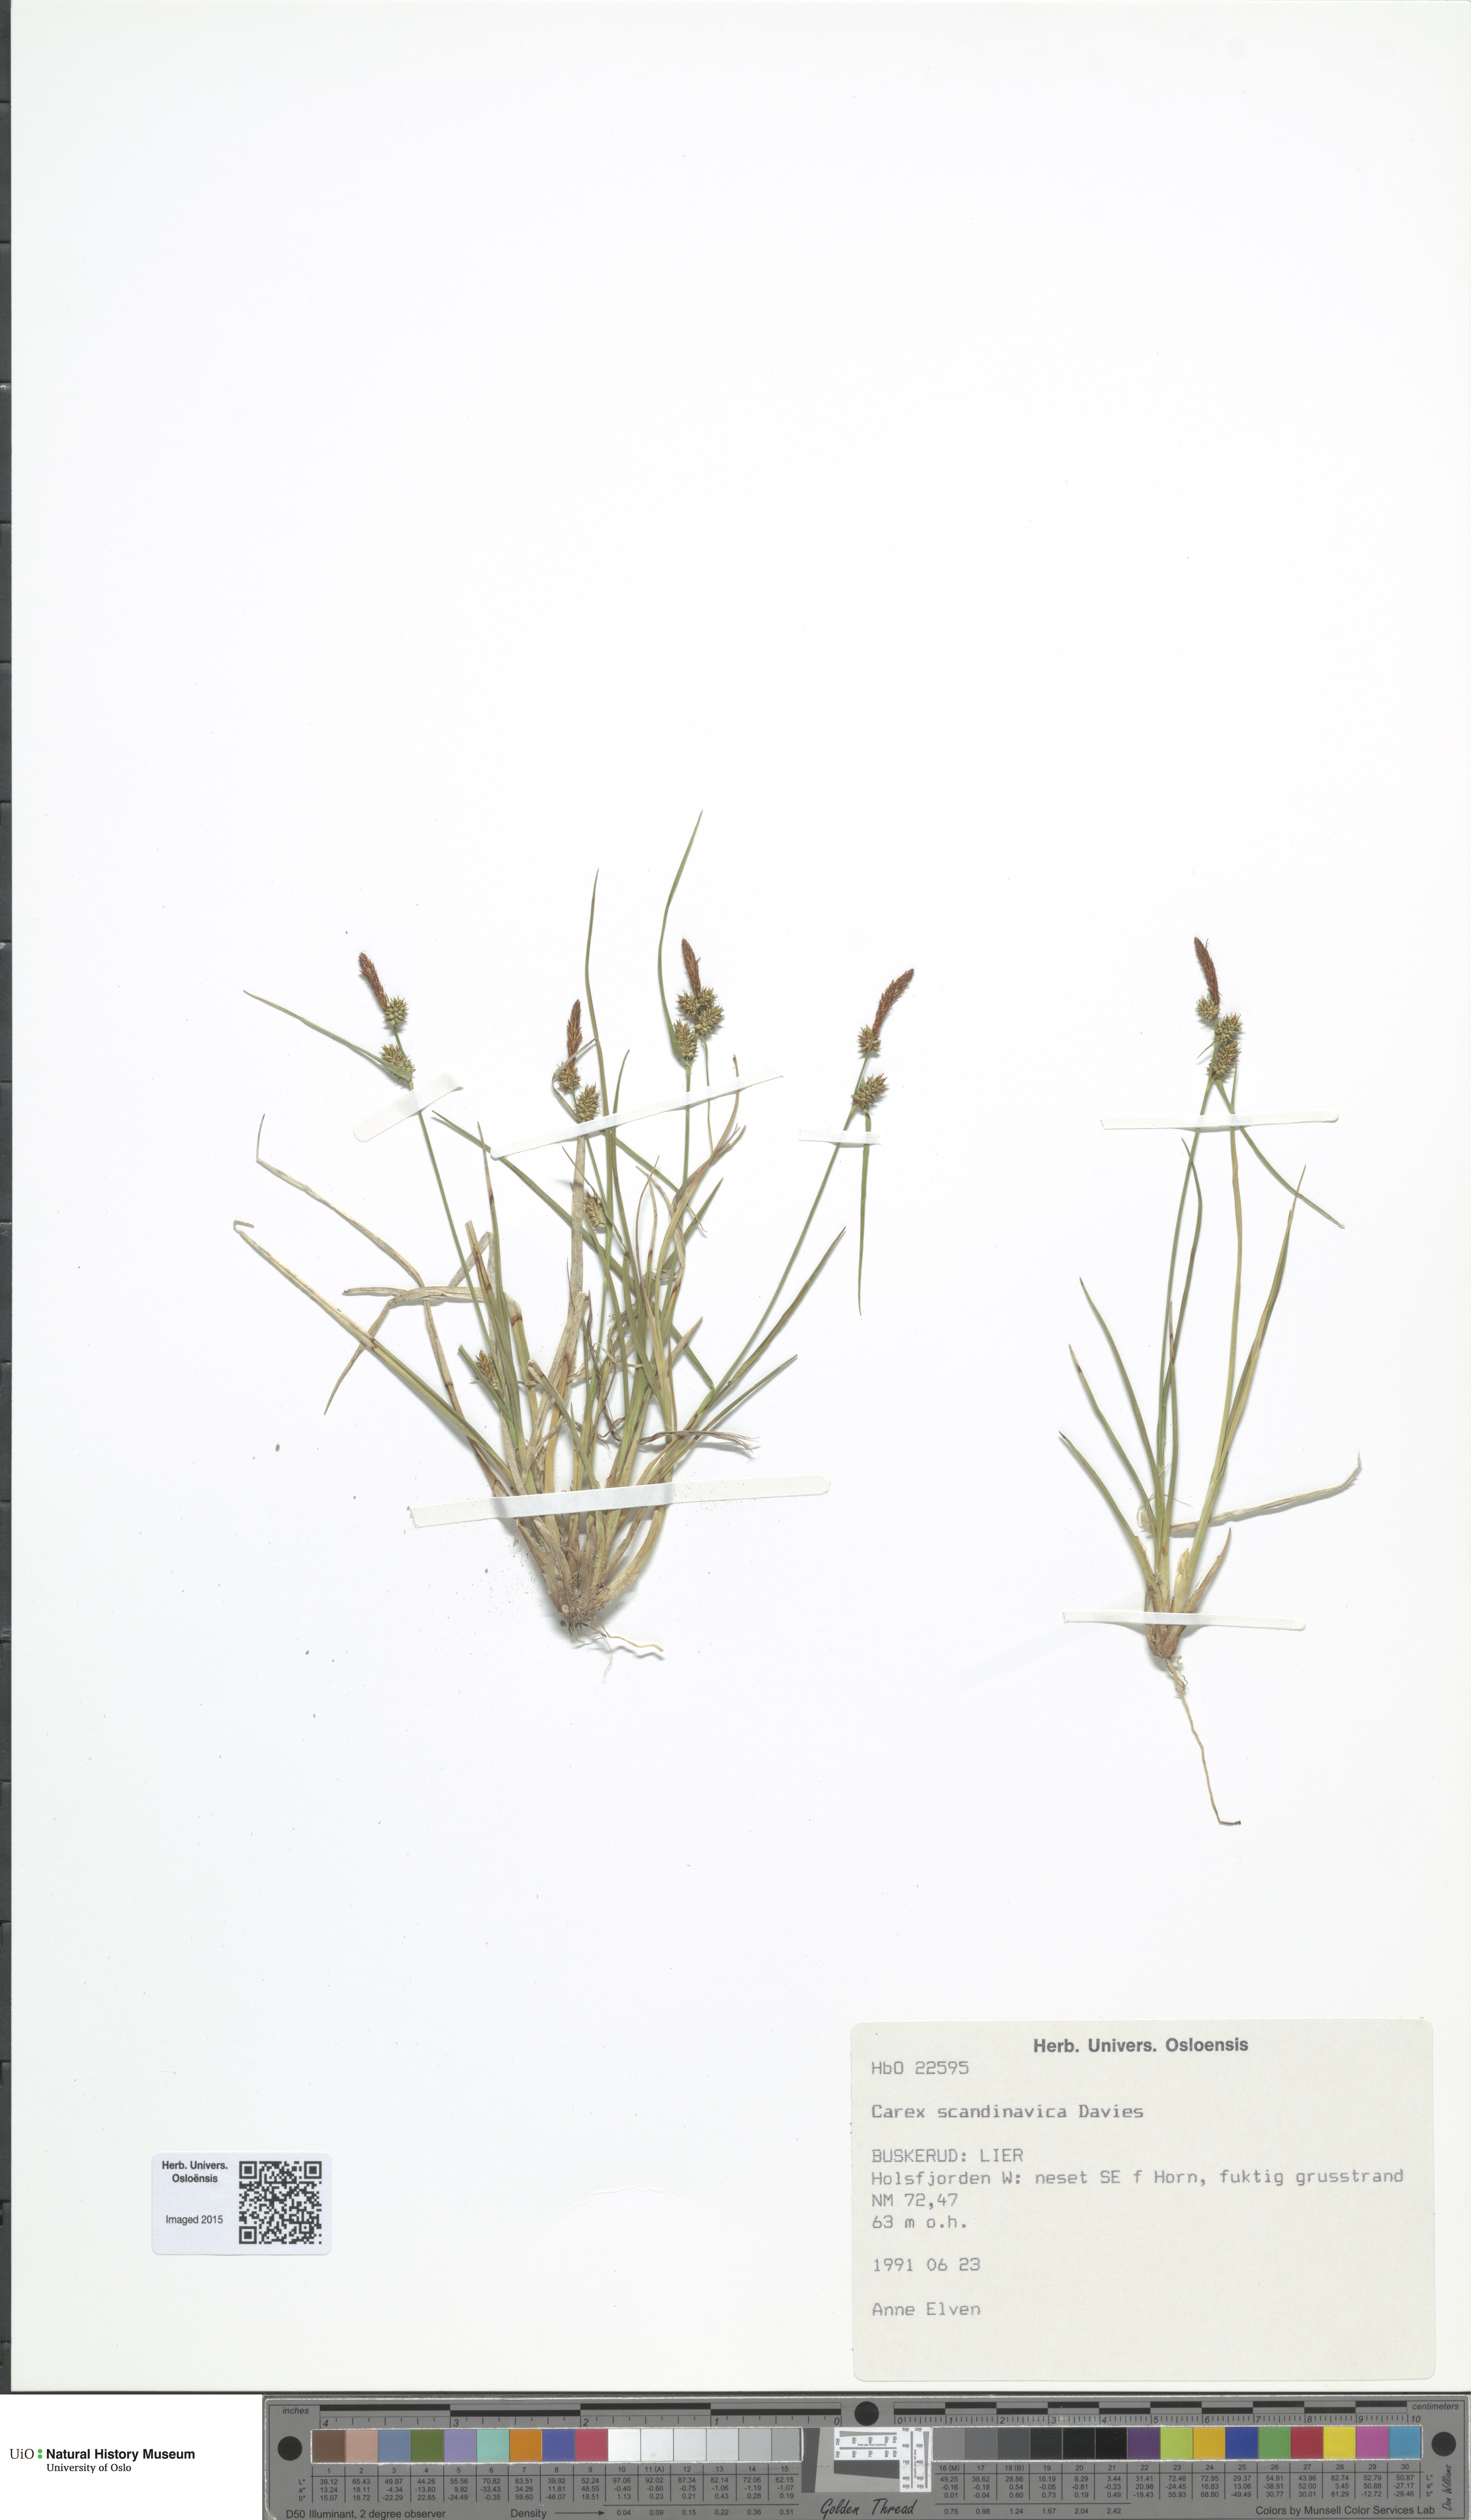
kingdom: Plantae
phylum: Tracheophyta
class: Liliopsida
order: Poales
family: Cyperaceae
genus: Carex
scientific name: Carex oederi
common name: Common & small-fruited yellow-sedge
